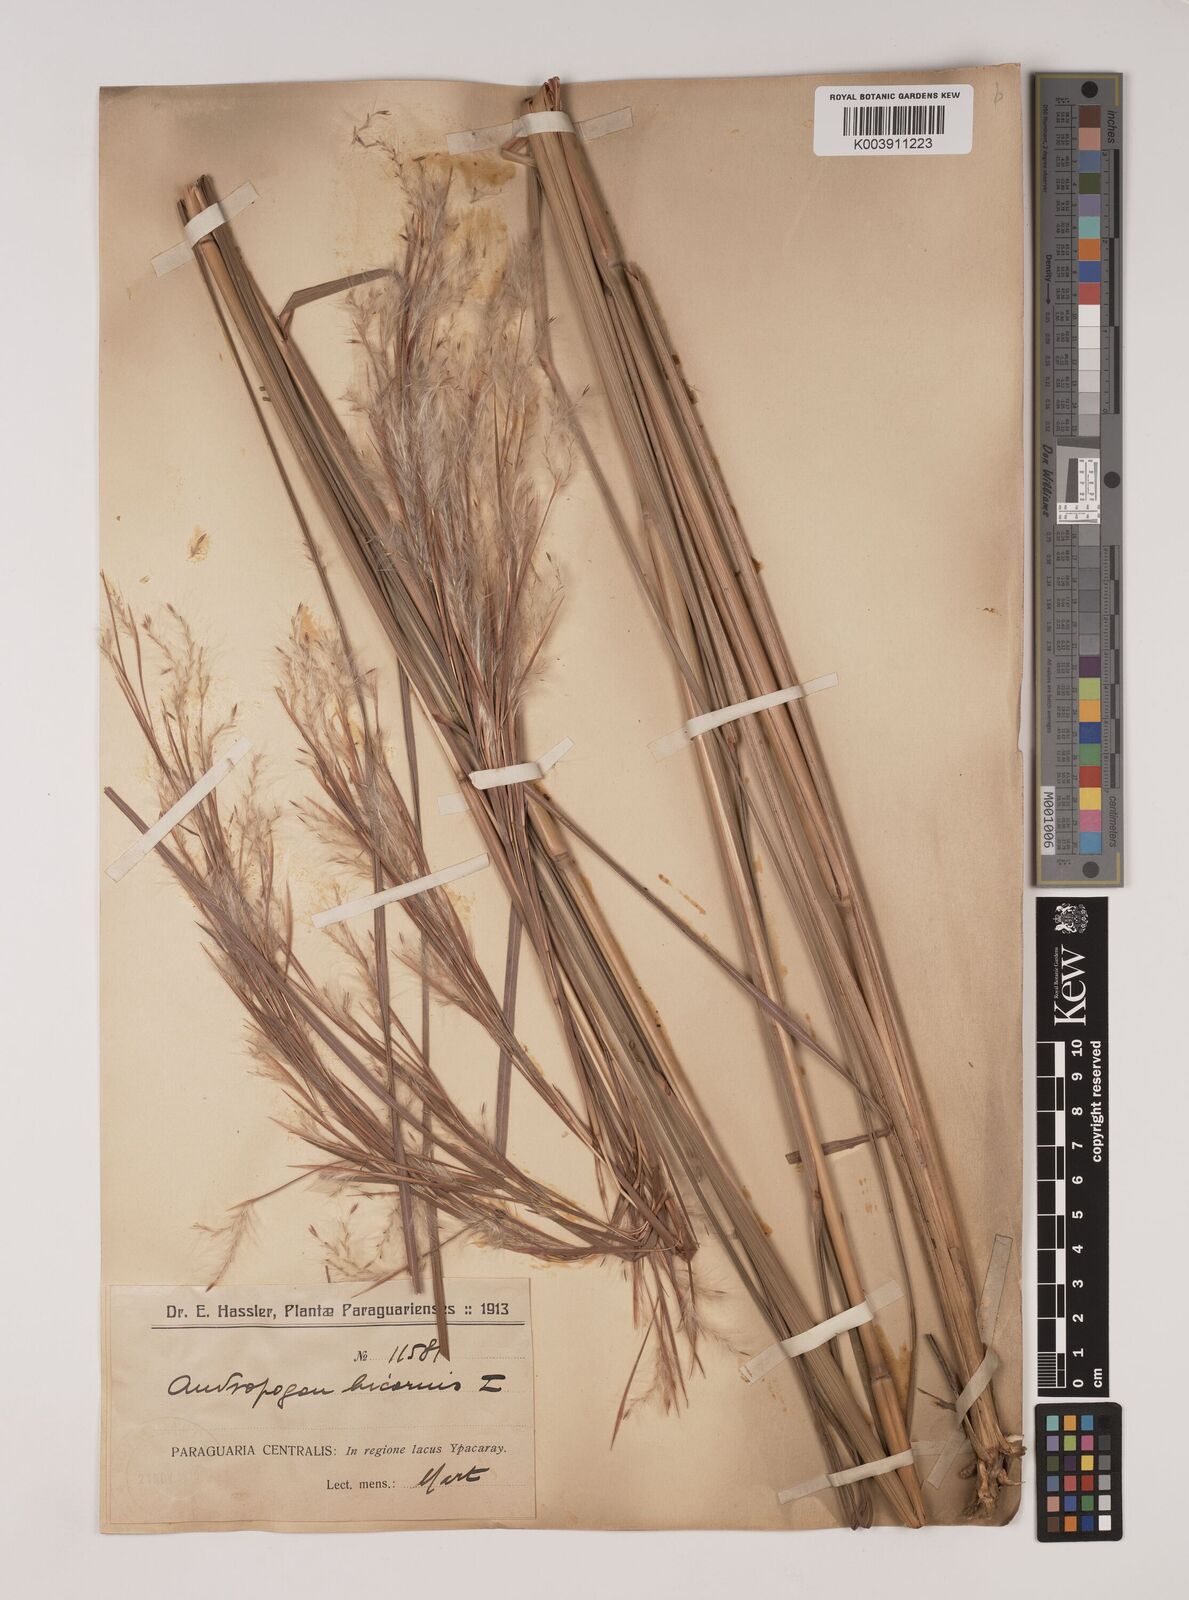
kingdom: Plantae
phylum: Tracheophyta
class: Liliopsida
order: Poales
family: Poaceae
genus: Andropogon
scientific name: Andropogon bicornis
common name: West indian foxtail grass
